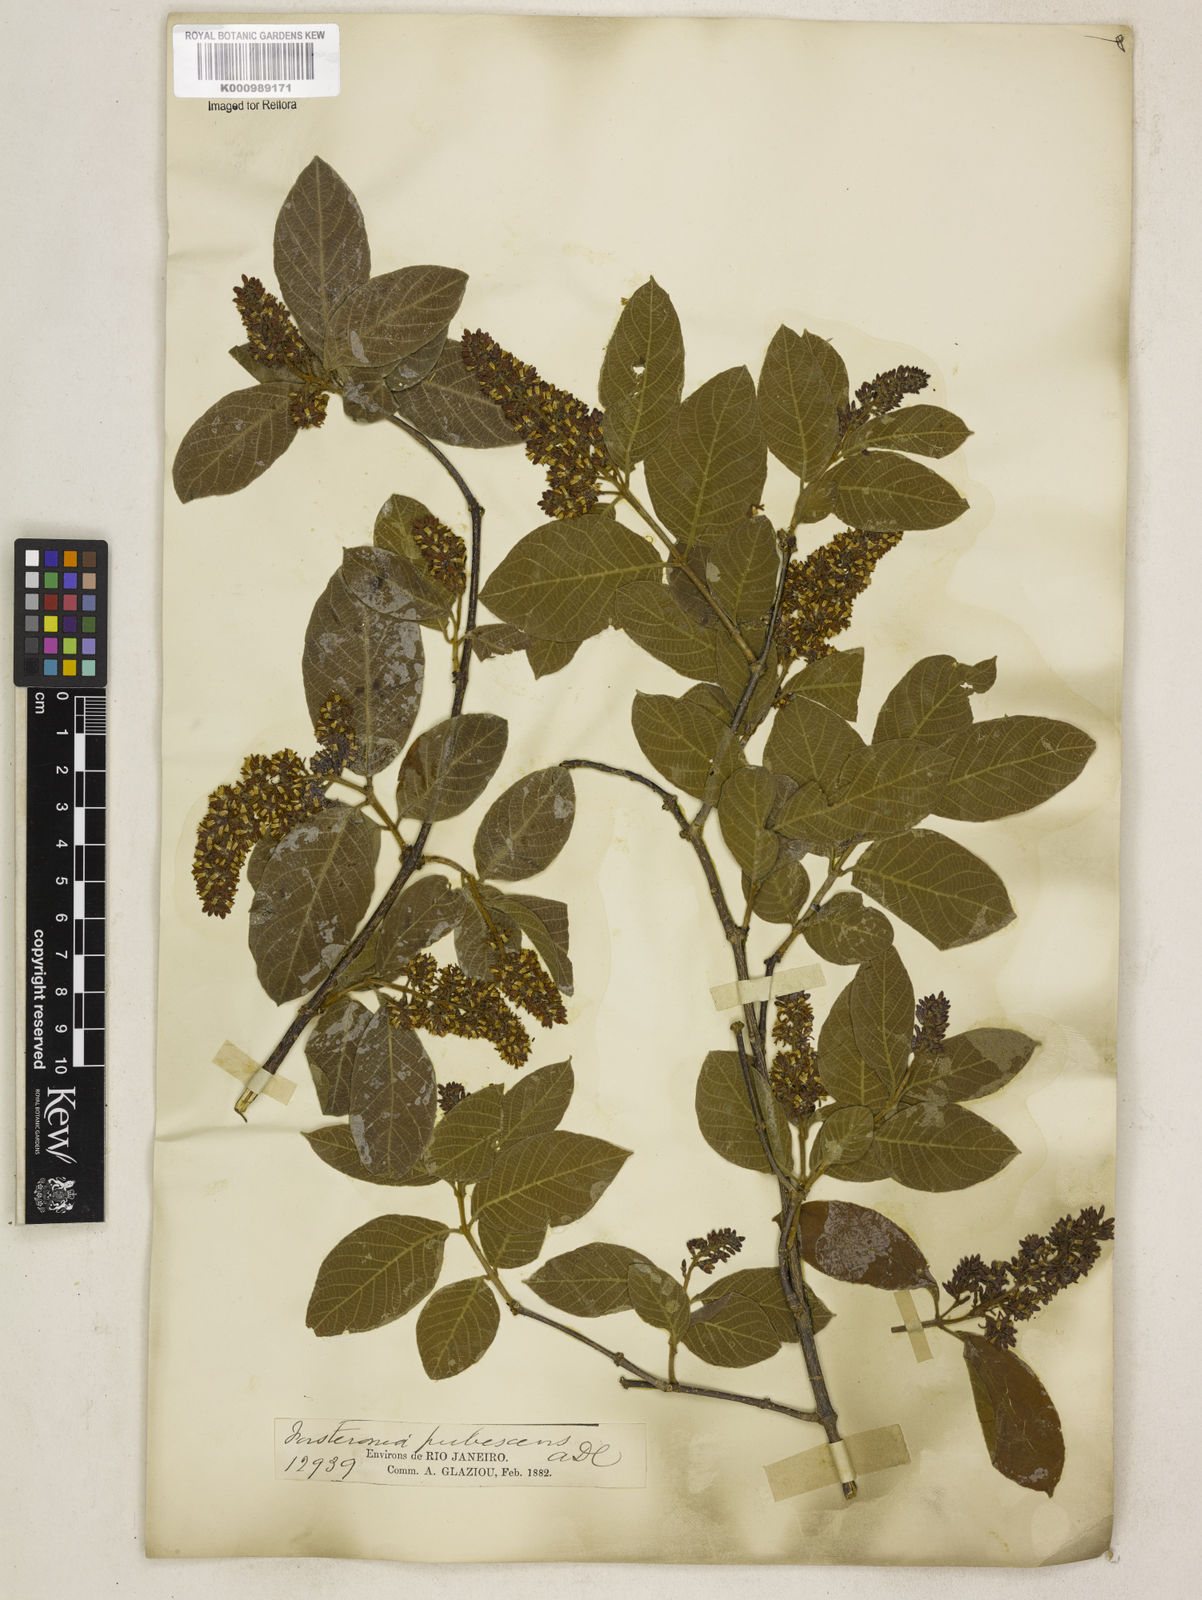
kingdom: Plantae
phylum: Tracheophyta
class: Magnoliopsida
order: Gentianales
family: Apocynaceae
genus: Forsteronia
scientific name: Forsteronia
